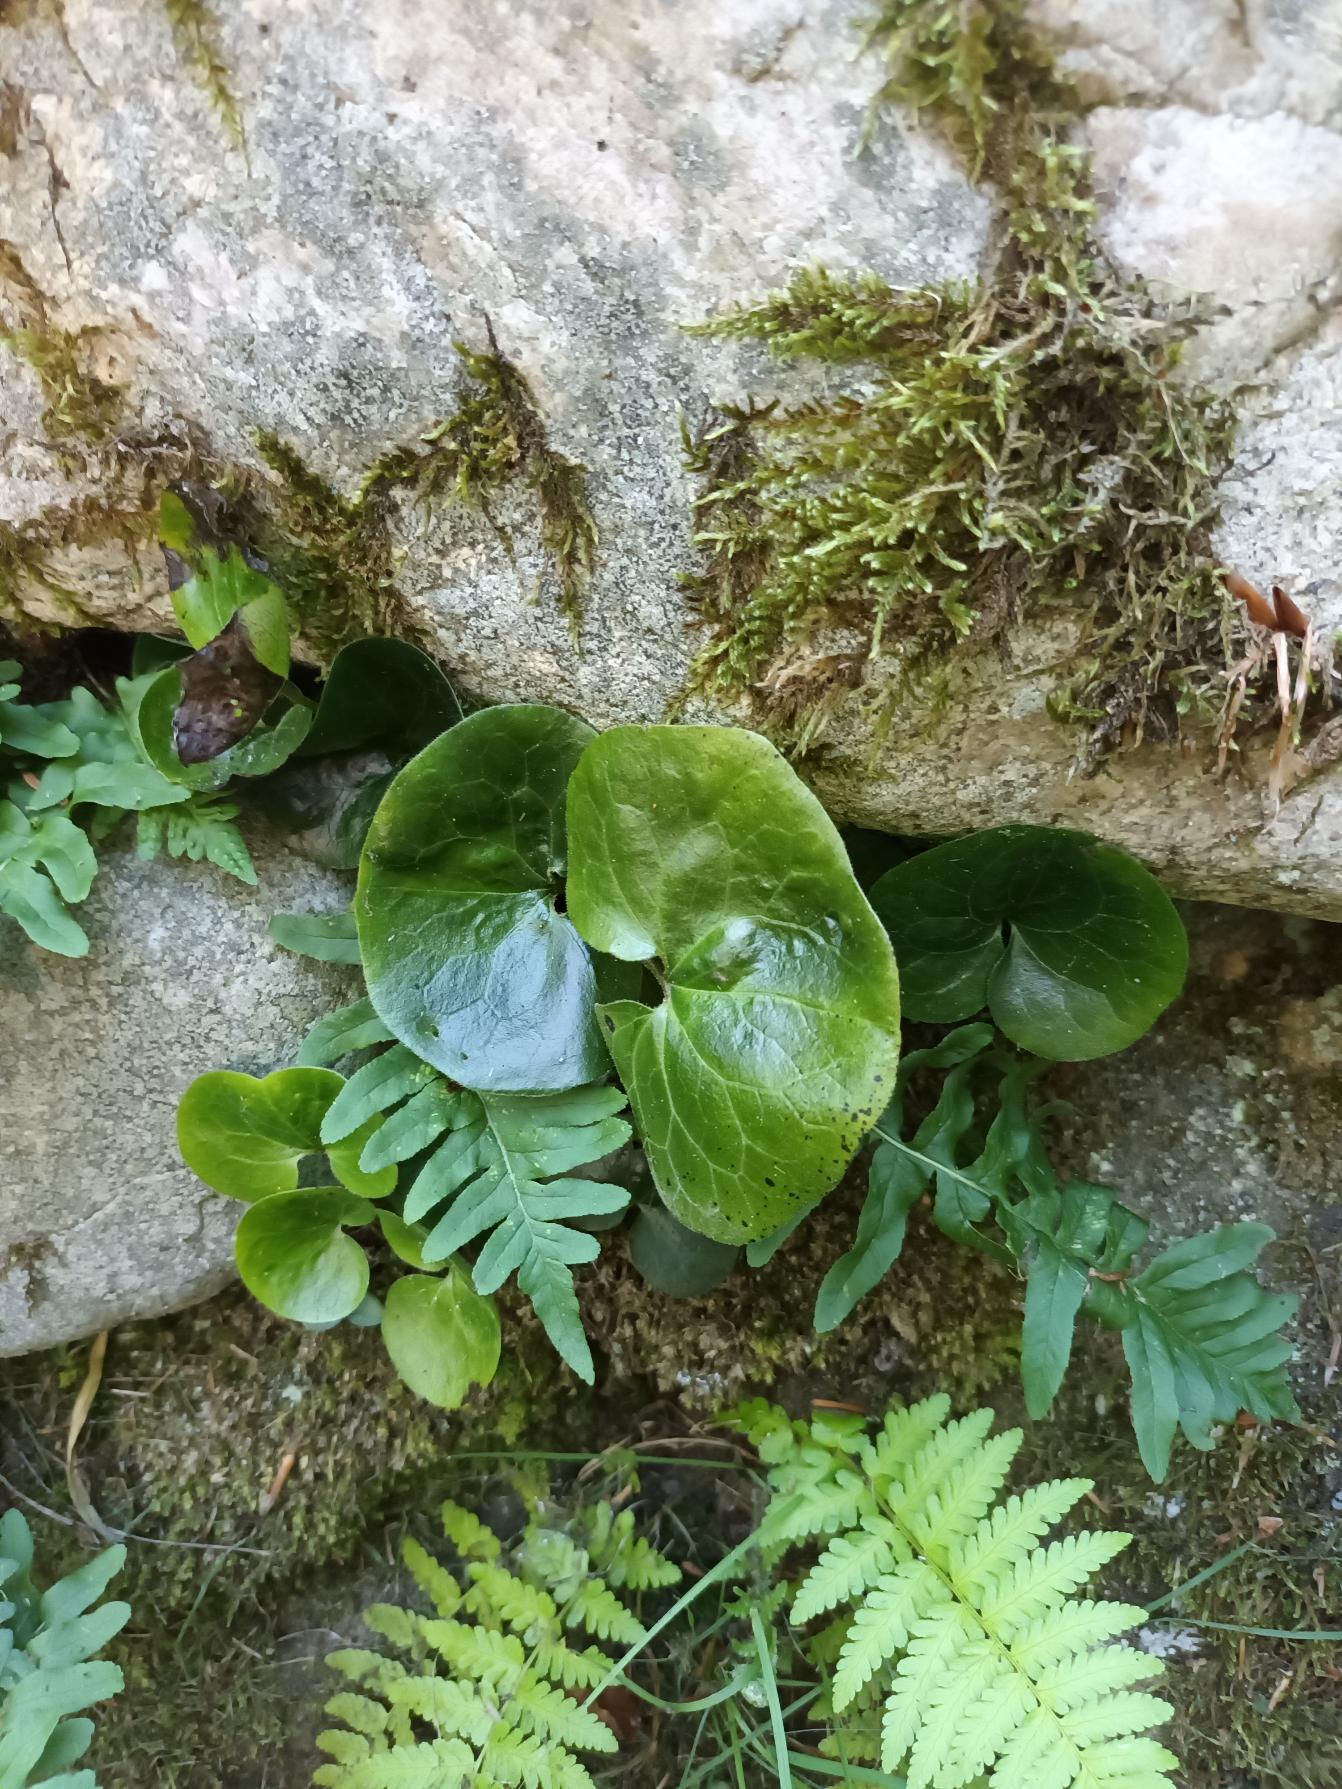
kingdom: Plantae
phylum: Tracheophyta
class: Magnoliopsida
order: Piperales
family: Aristolochiaceae
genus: Asarum
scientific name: Asarum europaeum
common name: Hasselurt
